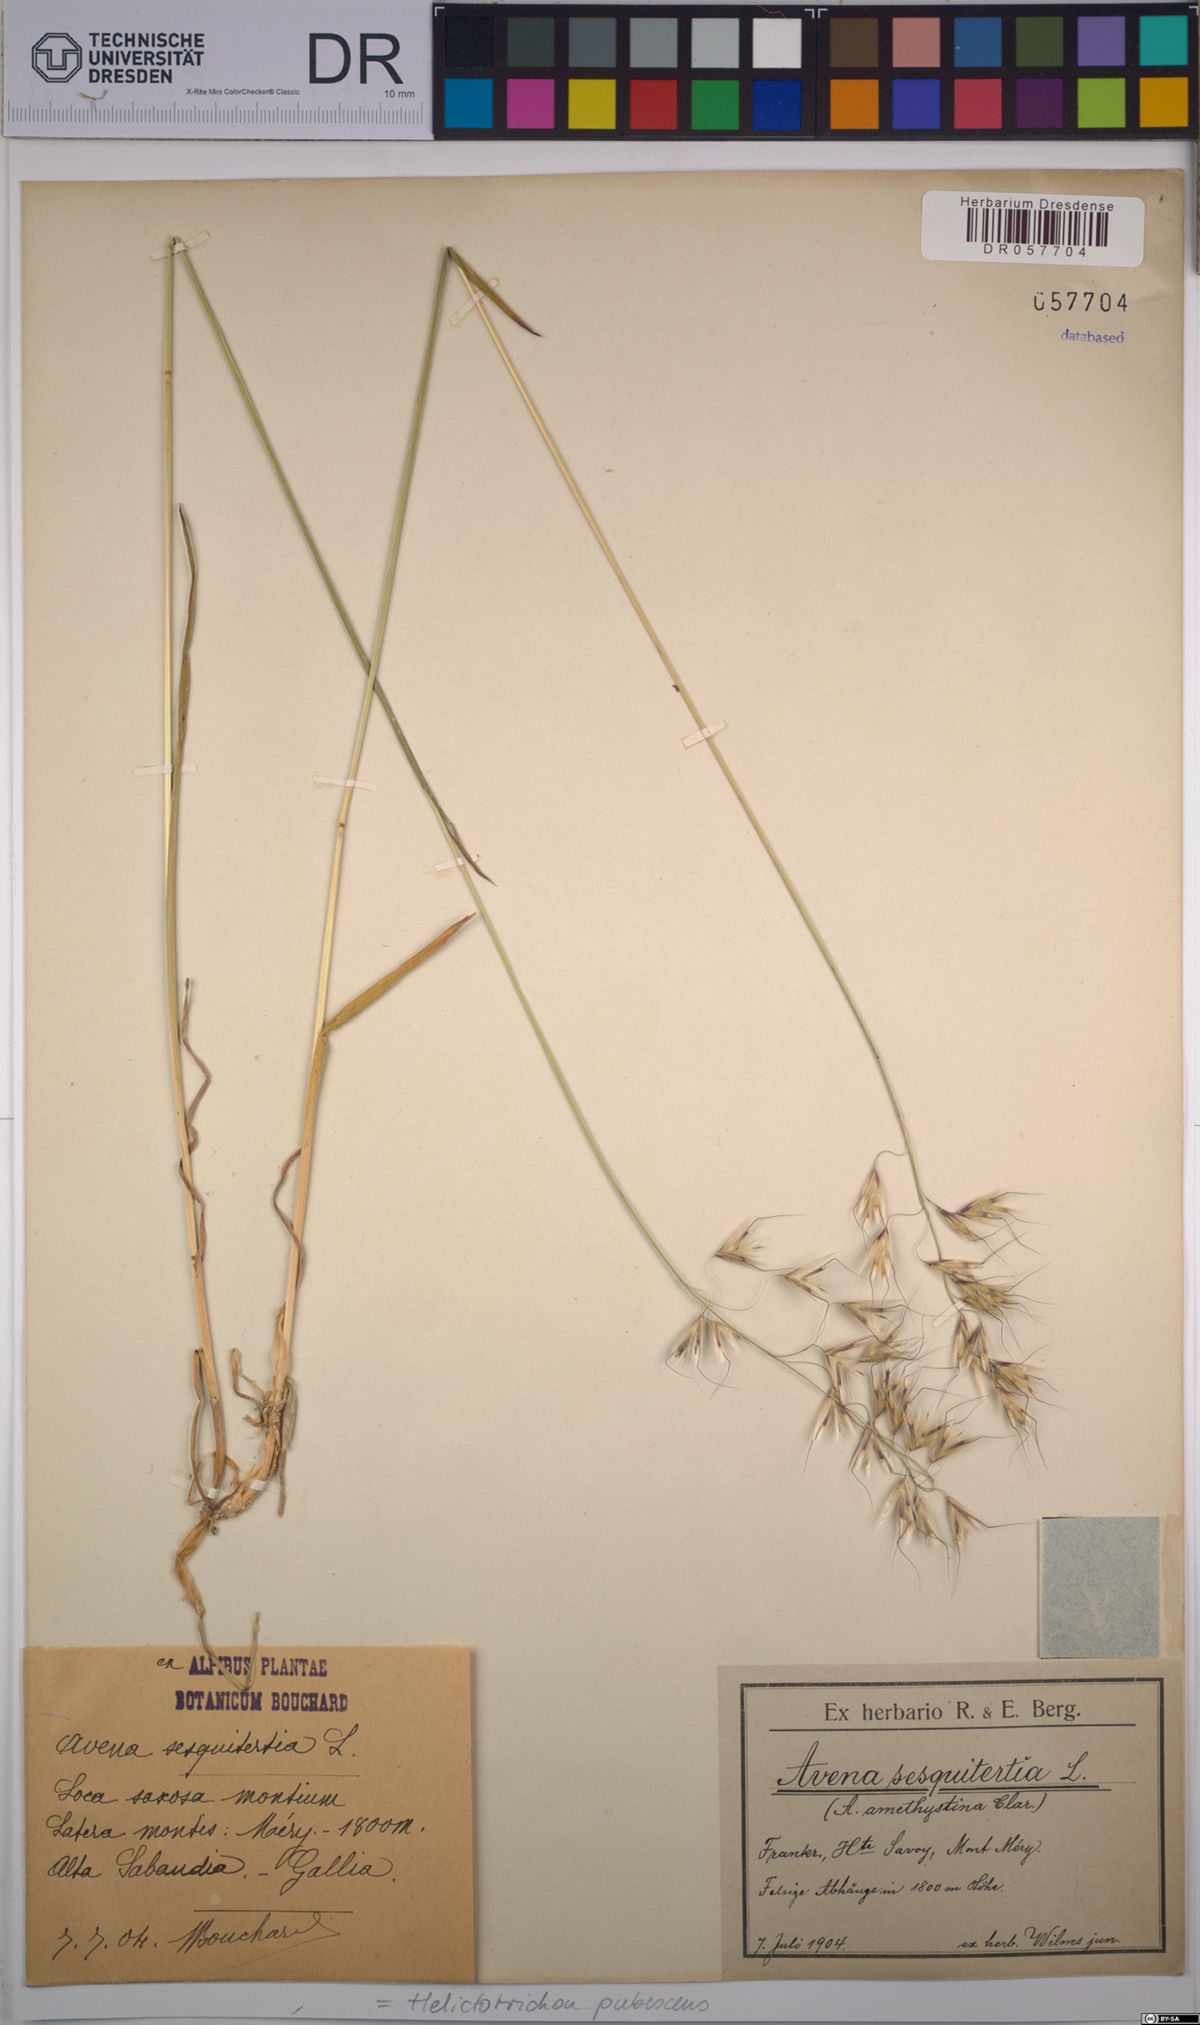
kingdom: Plantae
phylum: Tracheophyta
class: Liliopsida
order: Poales
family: Poaceae
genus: Avenula
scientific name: Avenula pubescens
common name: Downy alpine oatgrass
